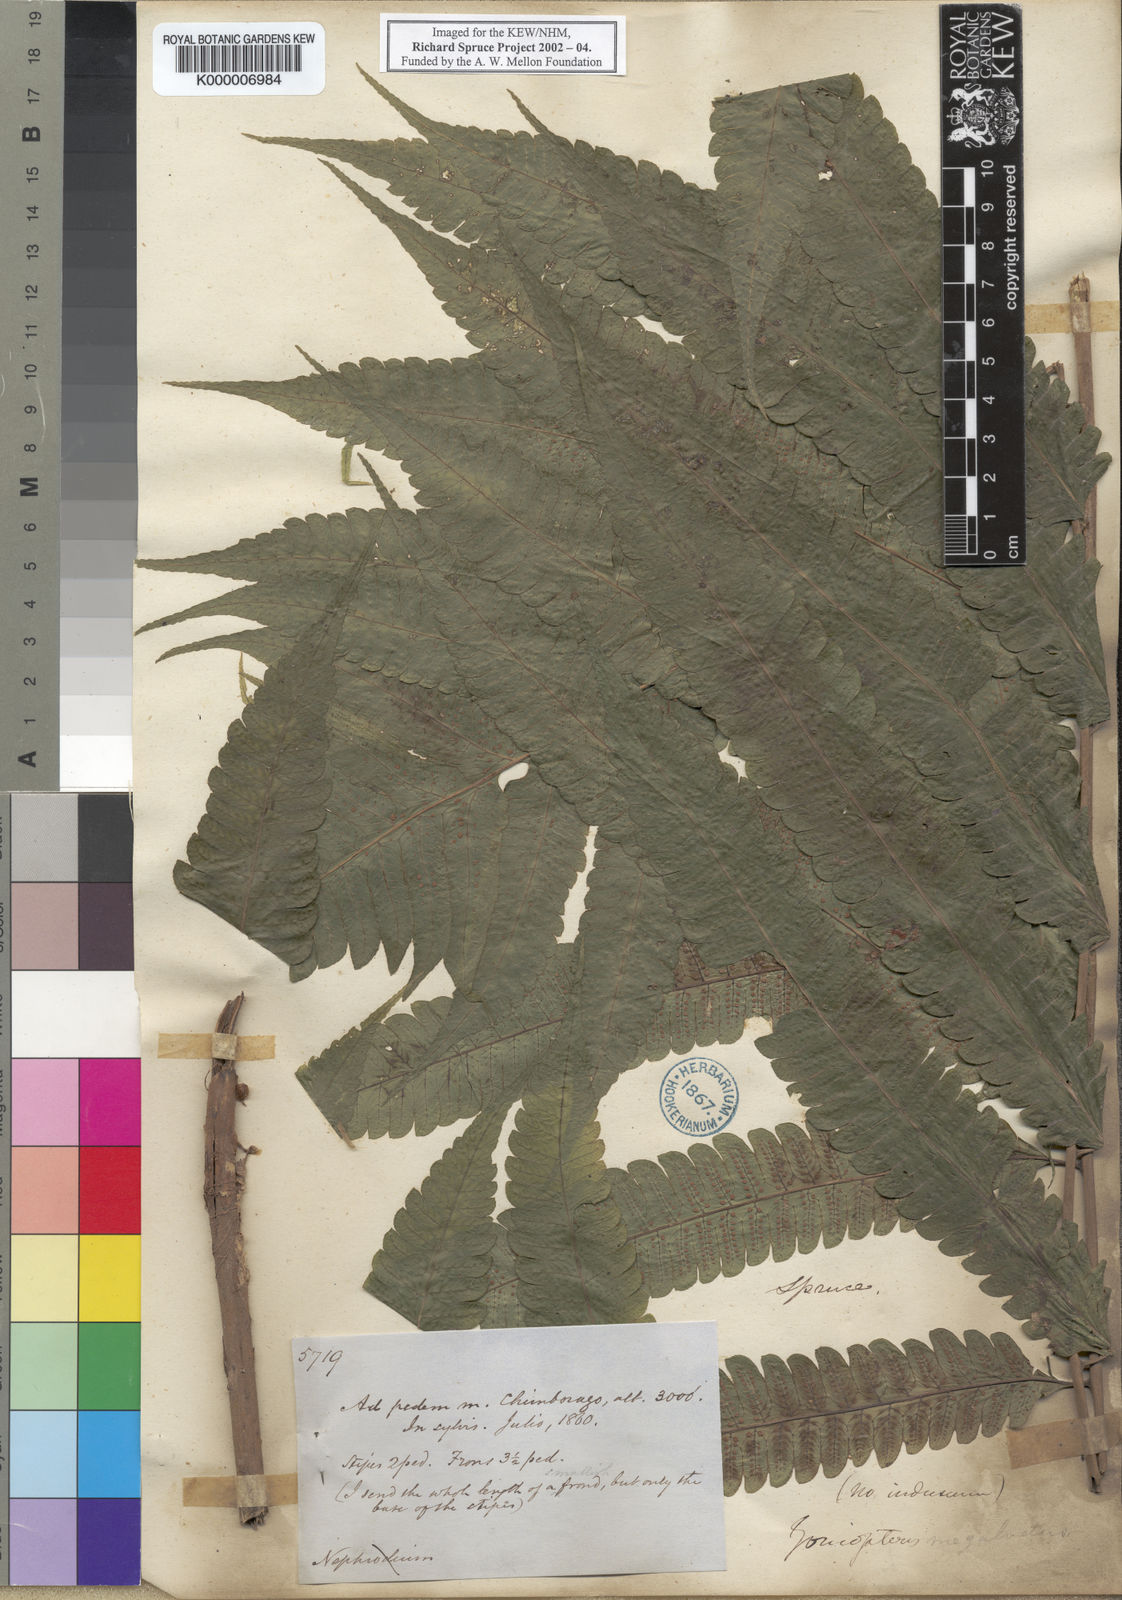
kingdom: Plantae
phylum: Tracheophyta
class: Polypodiopsida
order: Polypodiales
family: Thelypteridaceae
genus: Goniopteris
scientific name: Goniopteris pennata
